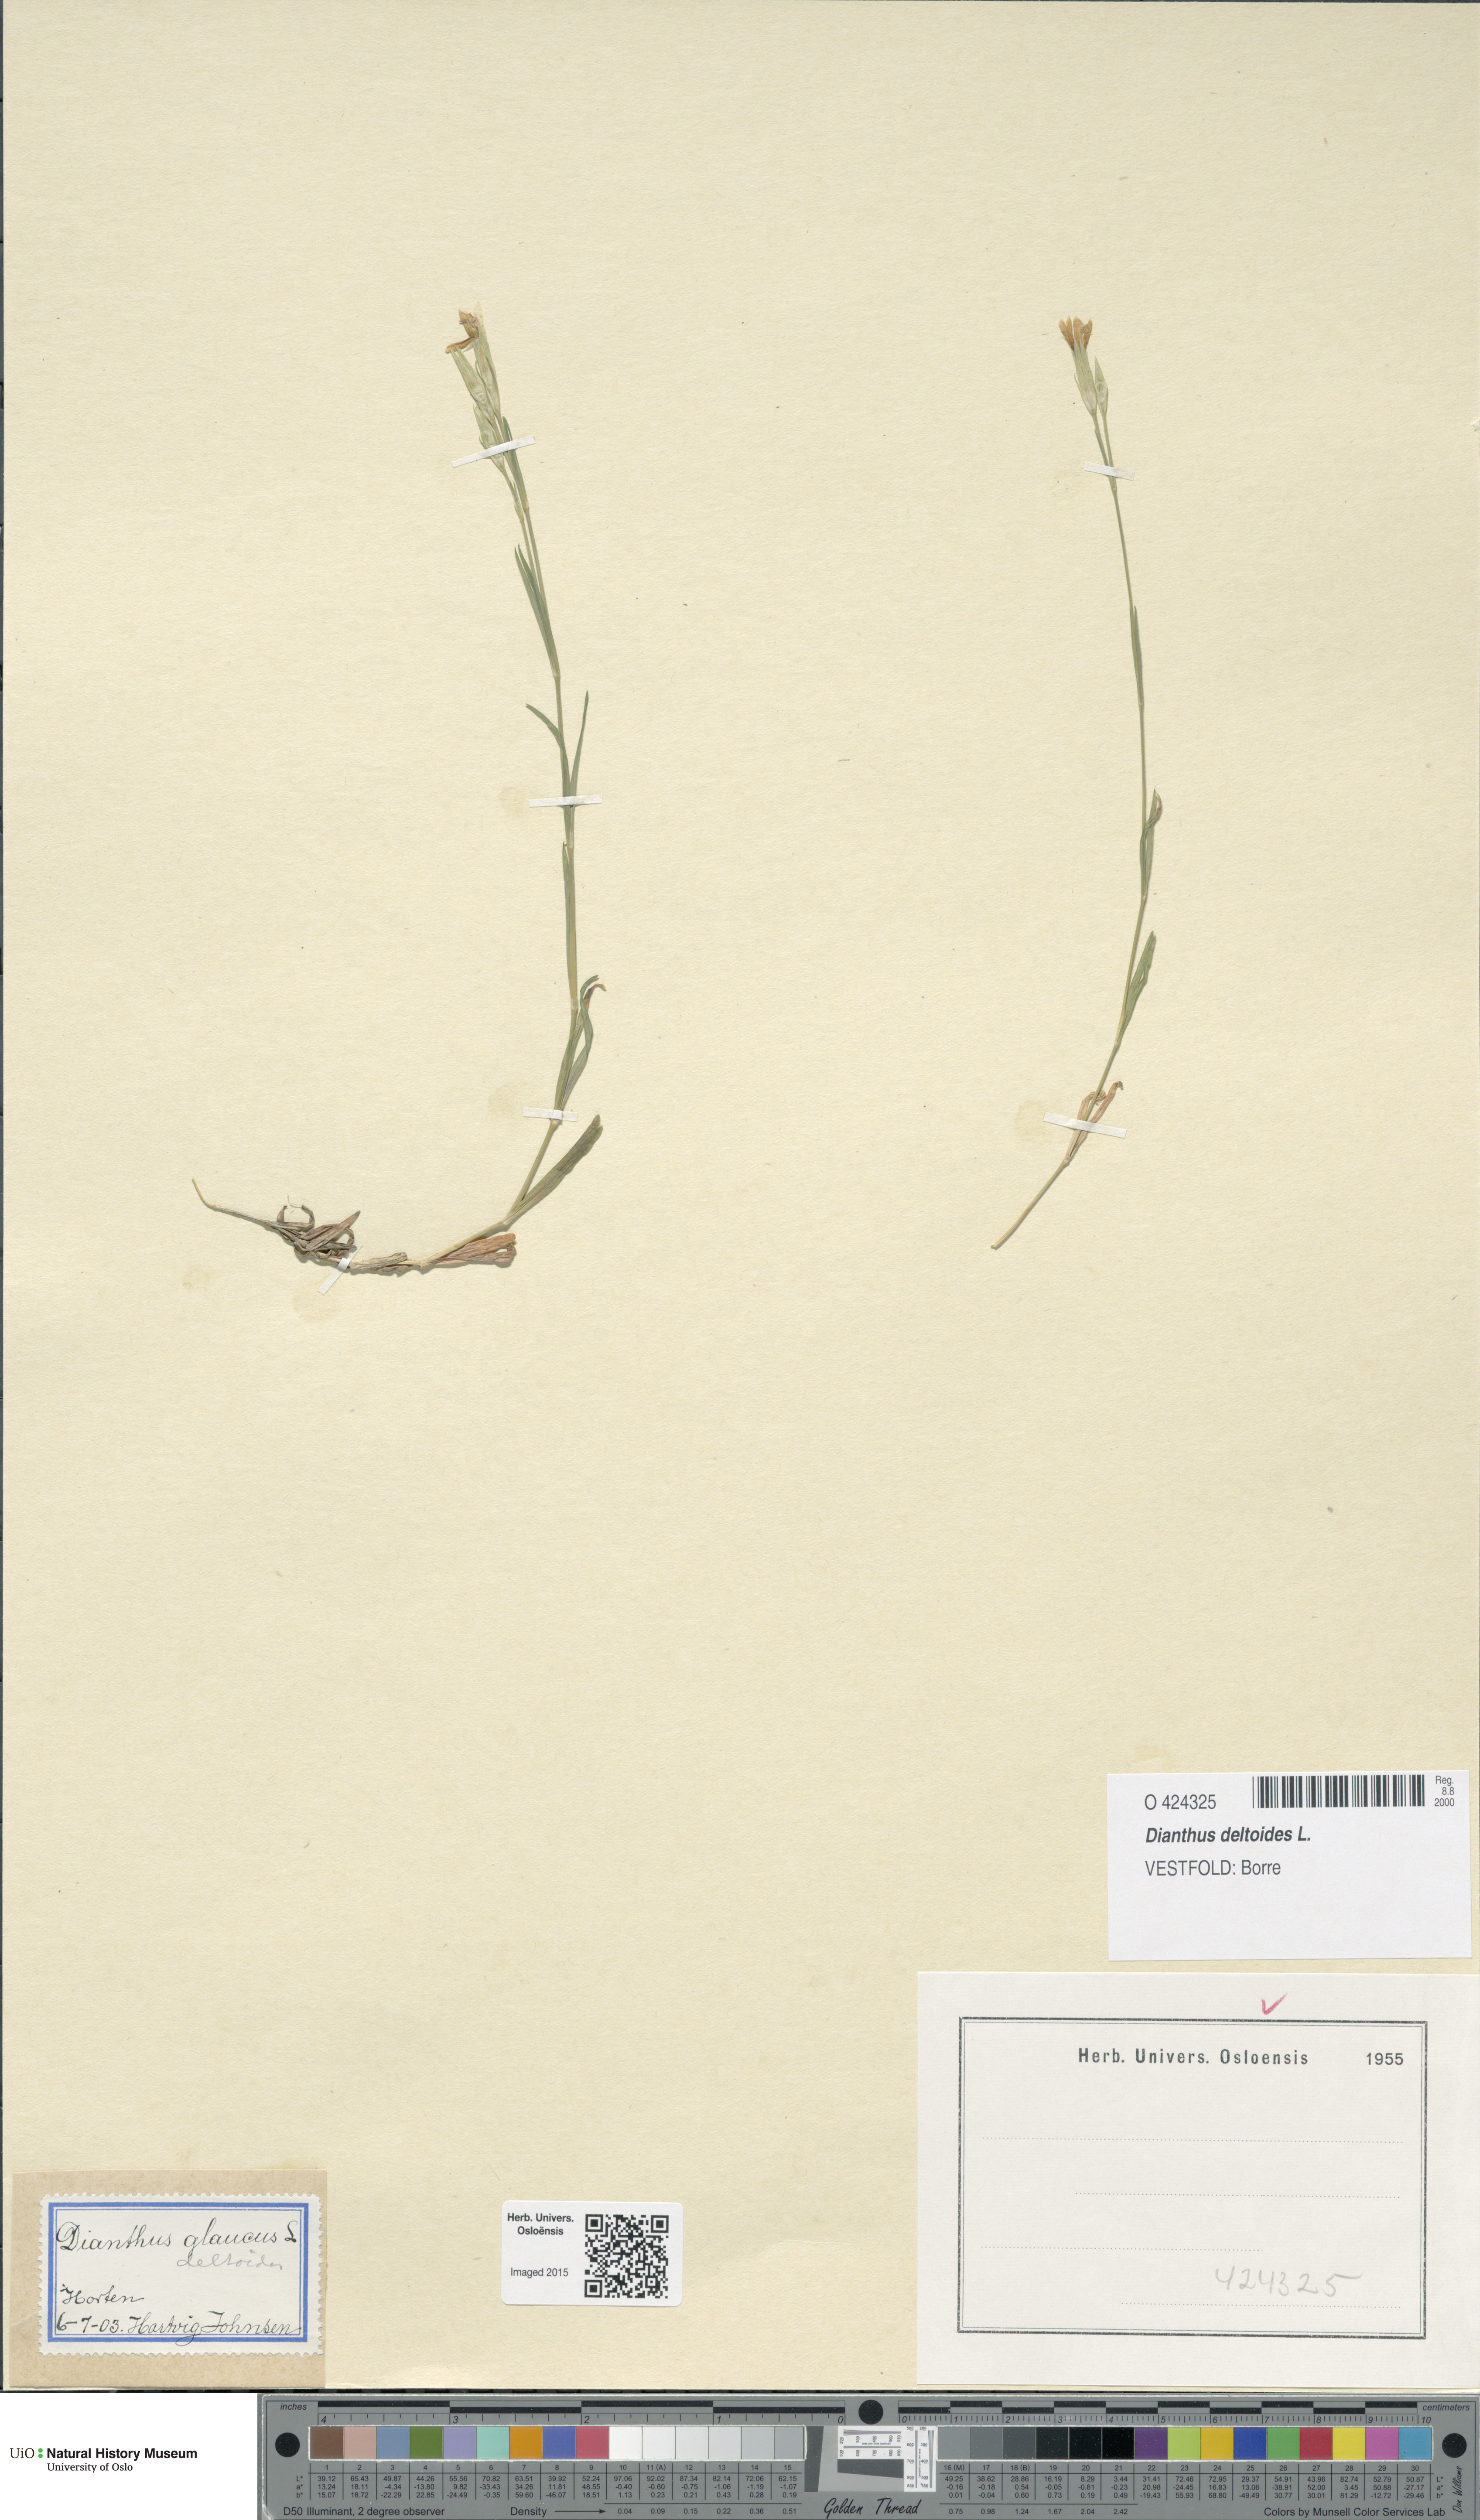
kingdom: Plantae
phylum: Tracheophyta
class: Magnoliopsida
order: Caryophyllales
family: Caryophyllaceae
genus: Dianthus
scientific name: Dianthus deltoides
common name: Maiden pink
